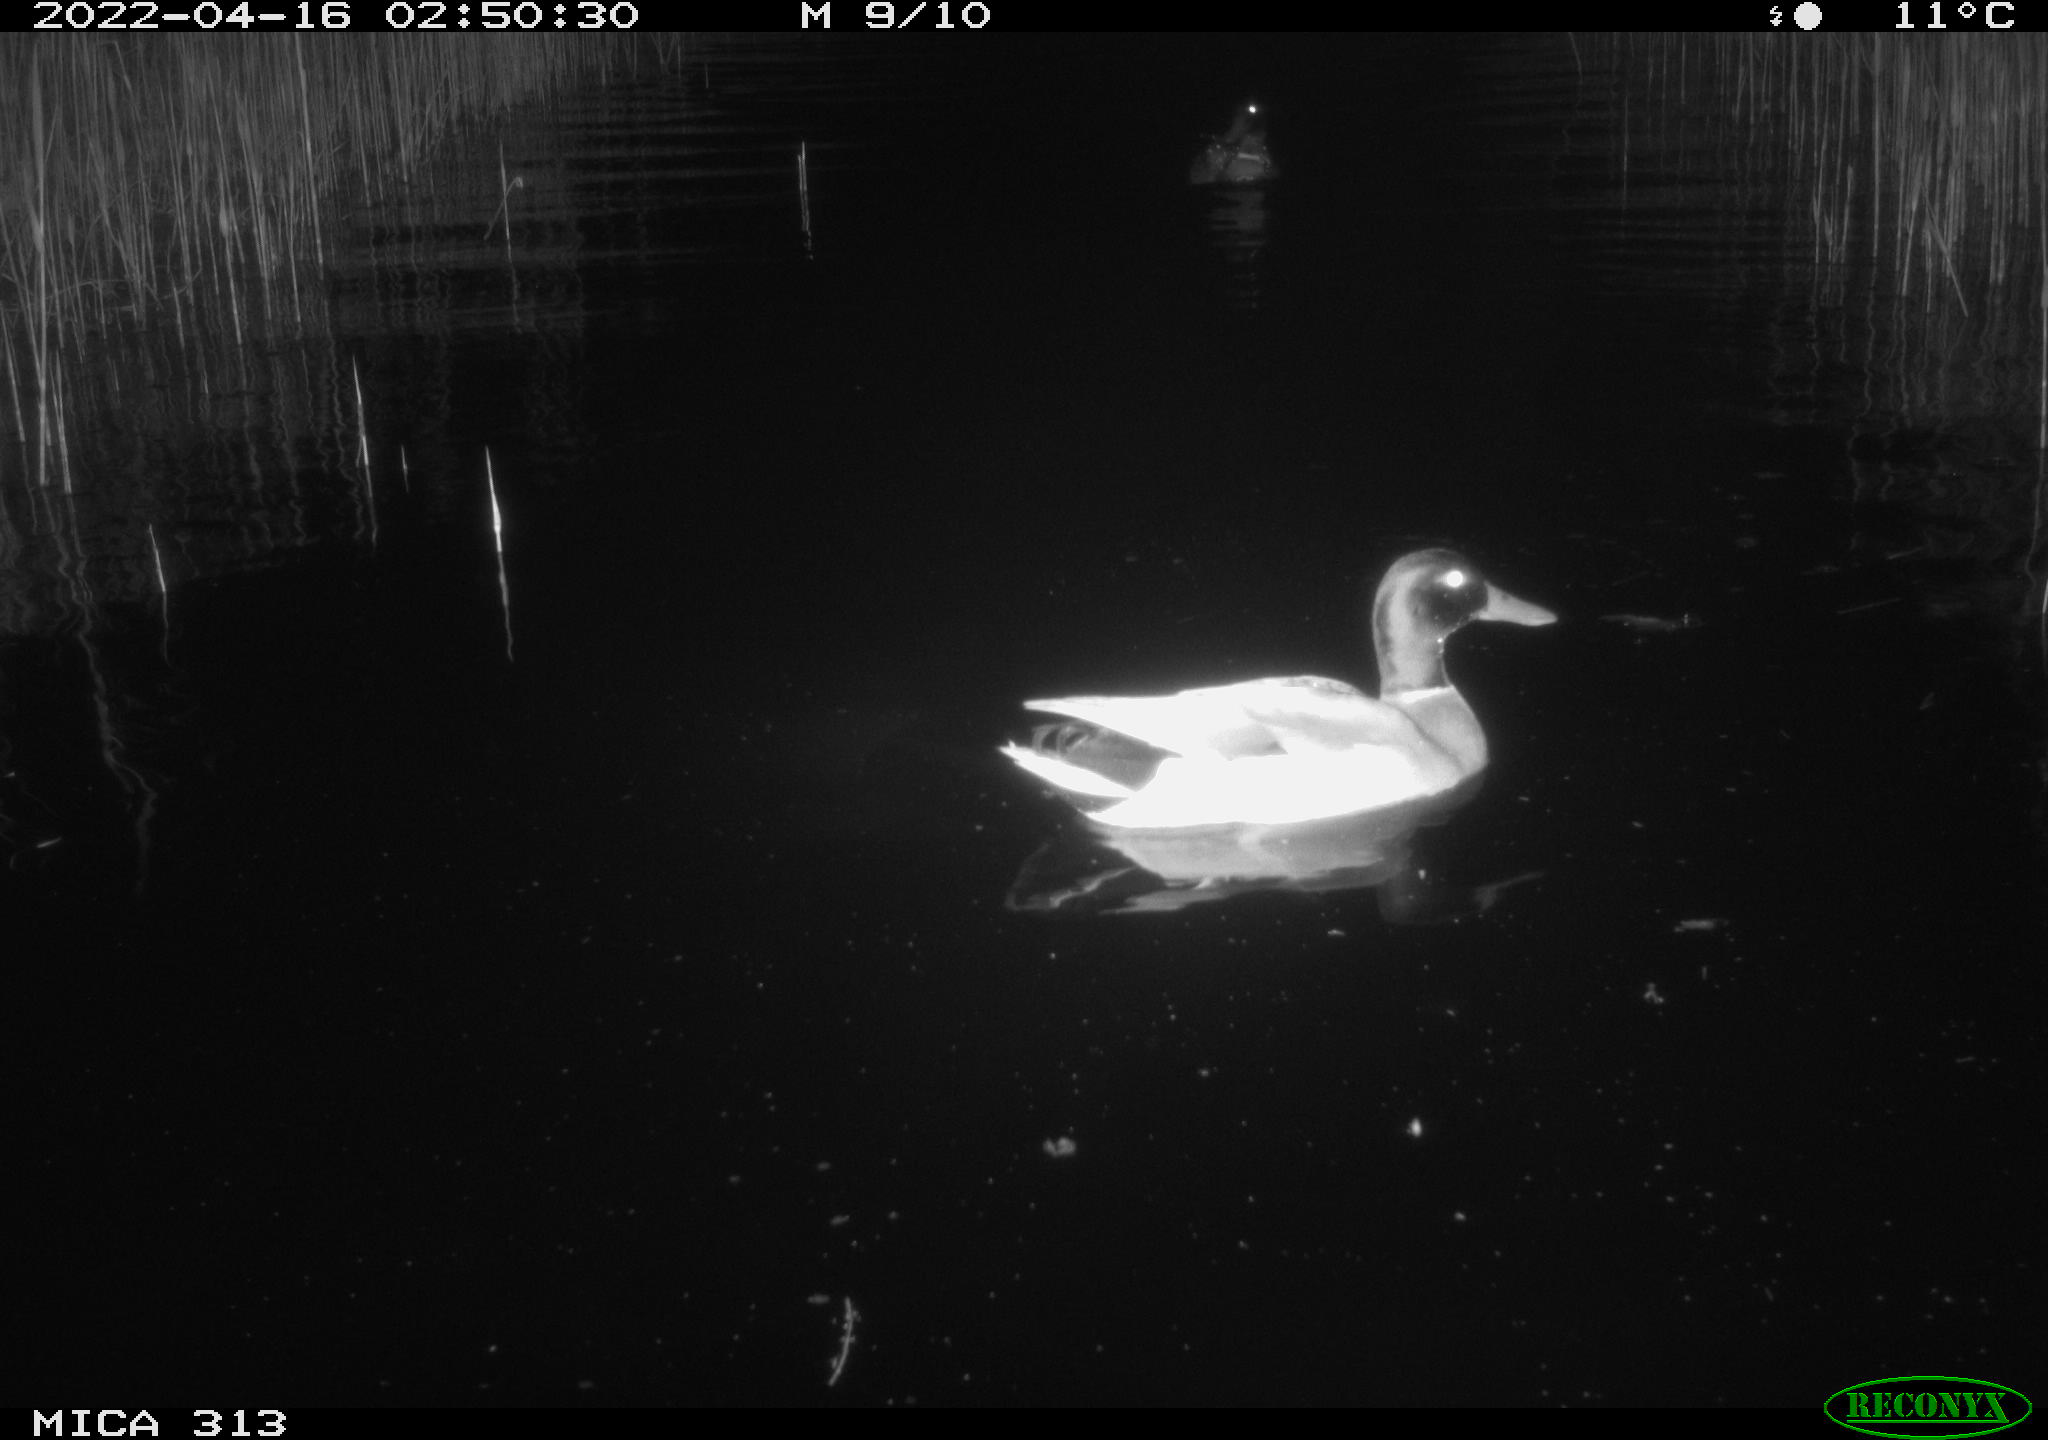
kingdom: Animalia
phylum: Chordata
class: Aves
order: Anseriformes
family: Anatidae
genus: Anas
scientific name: Anas platyrhynchos
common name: Mallard
